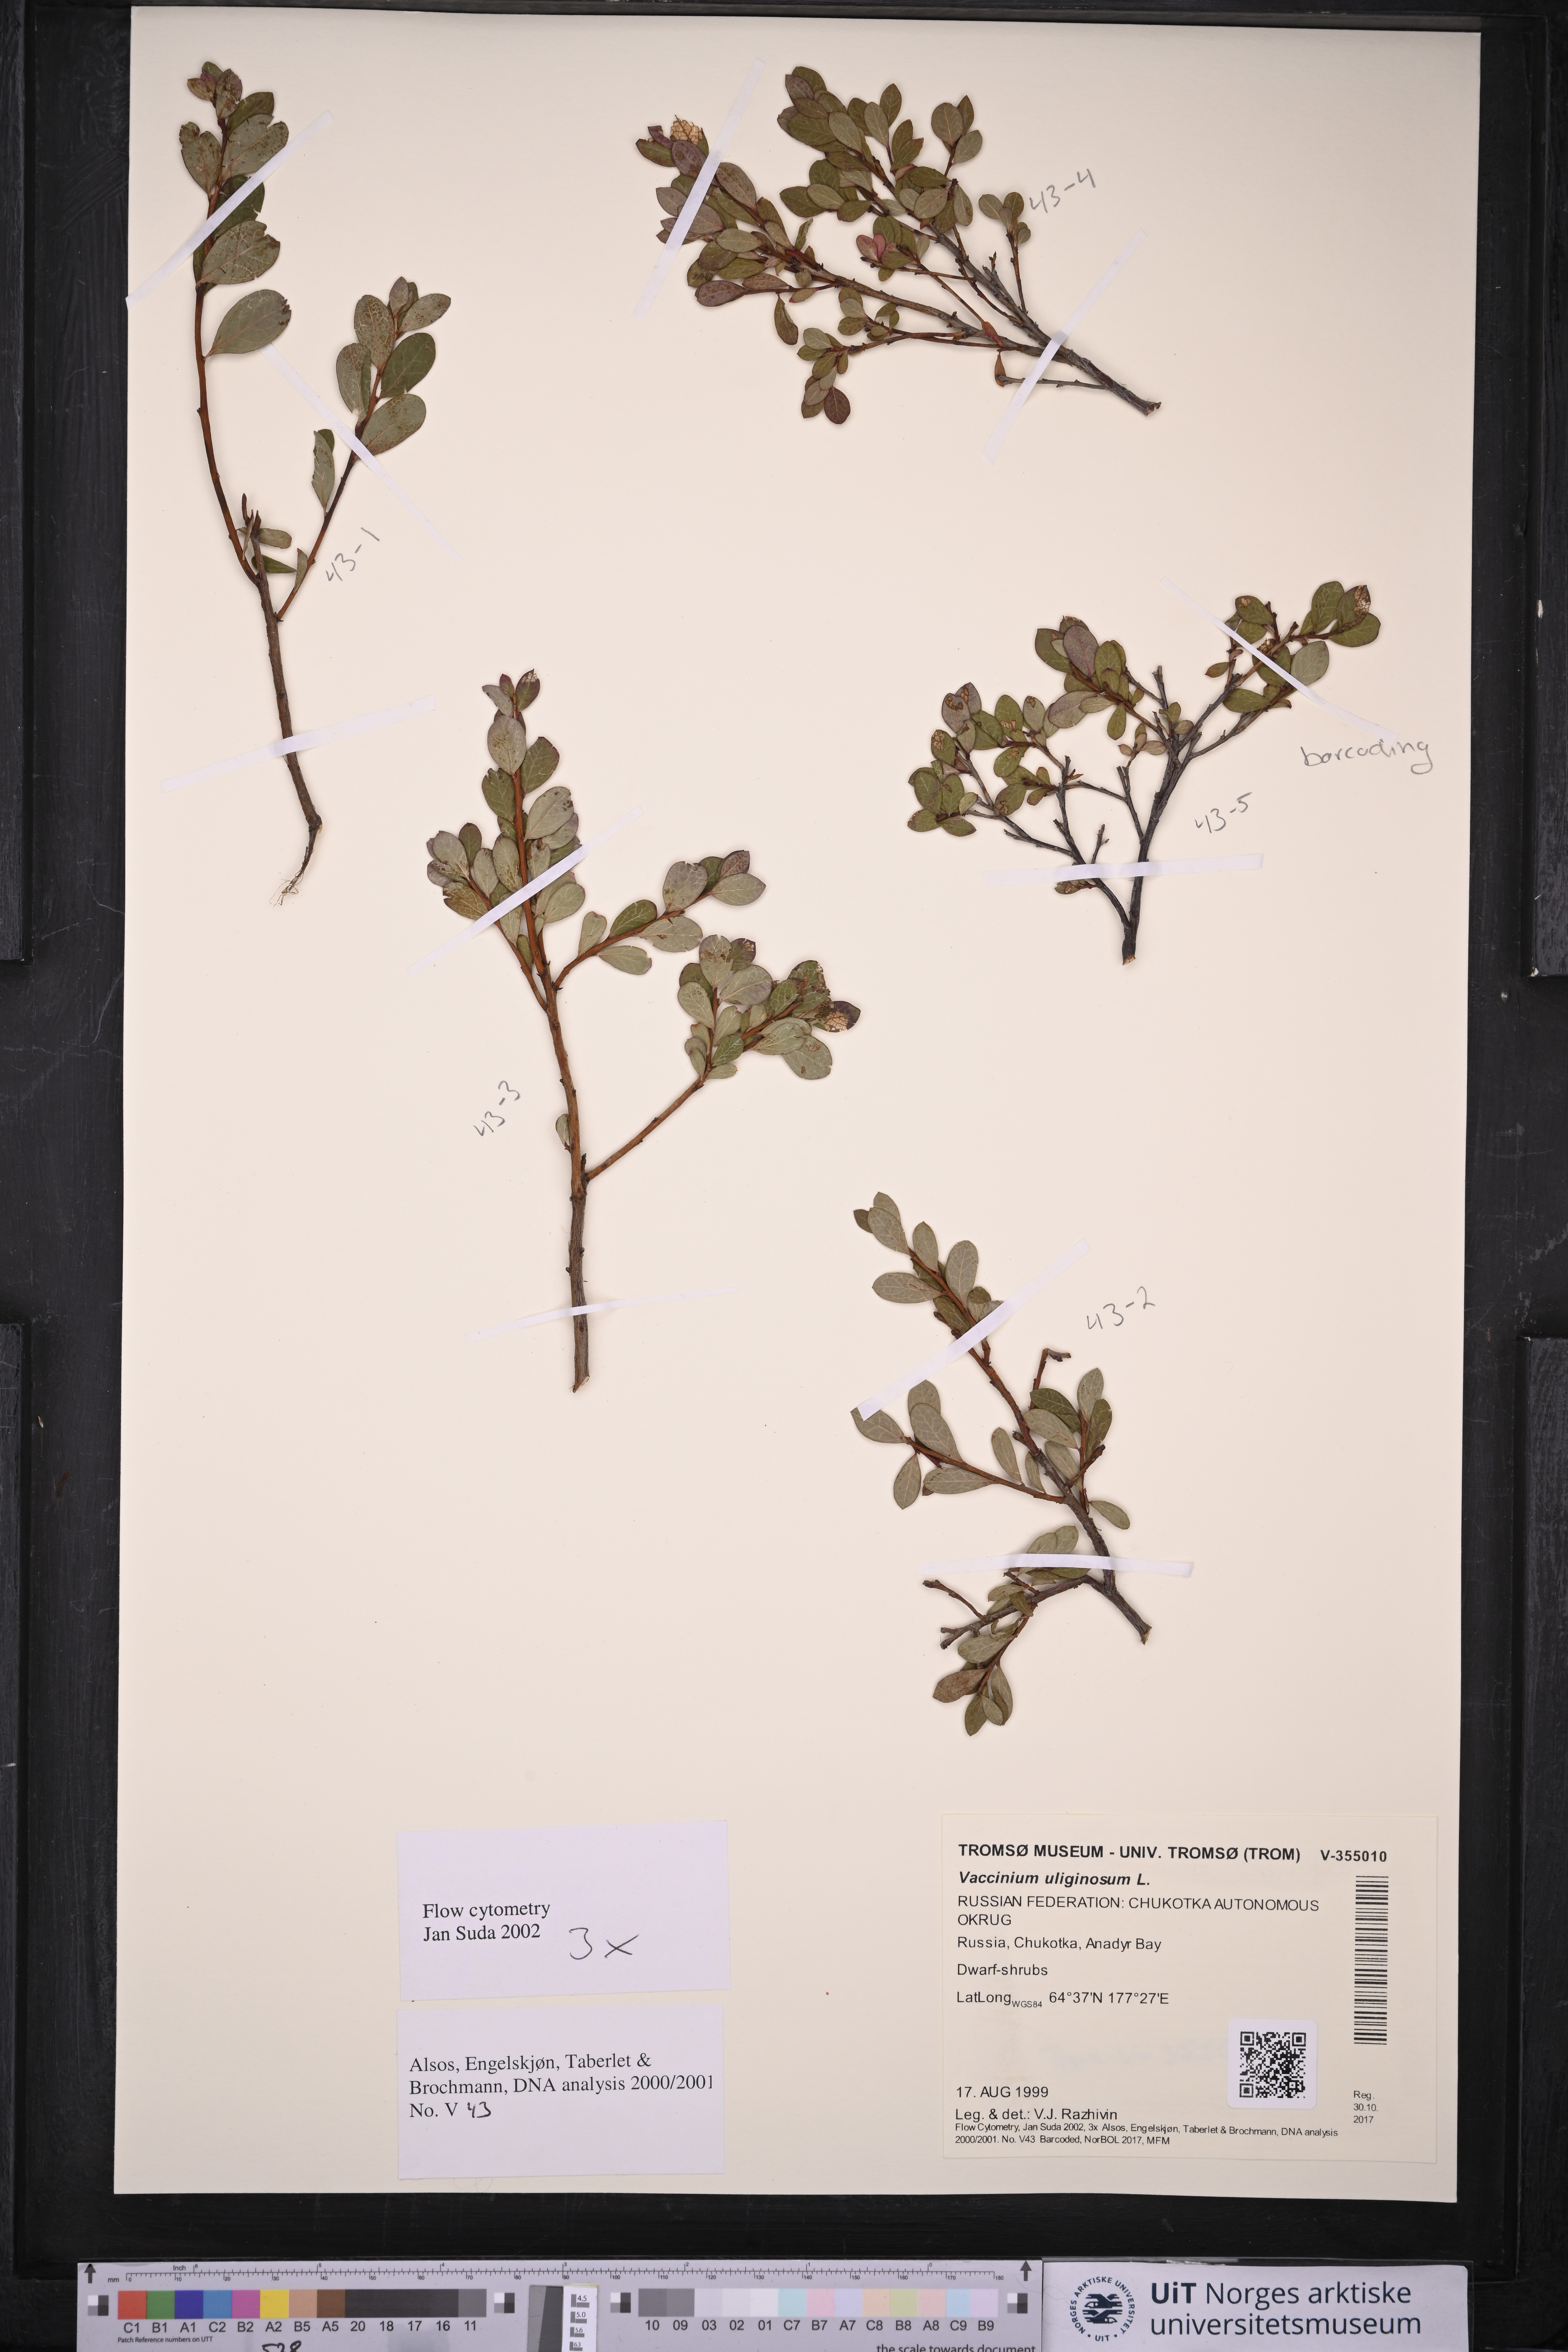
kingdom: Plantae
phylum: Tracheophyta
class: Magnoliopsida
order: Ericales
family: Ericaceae
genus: Vaccinium
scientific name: Vaccinium uliginosum
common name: Bog bilberry
